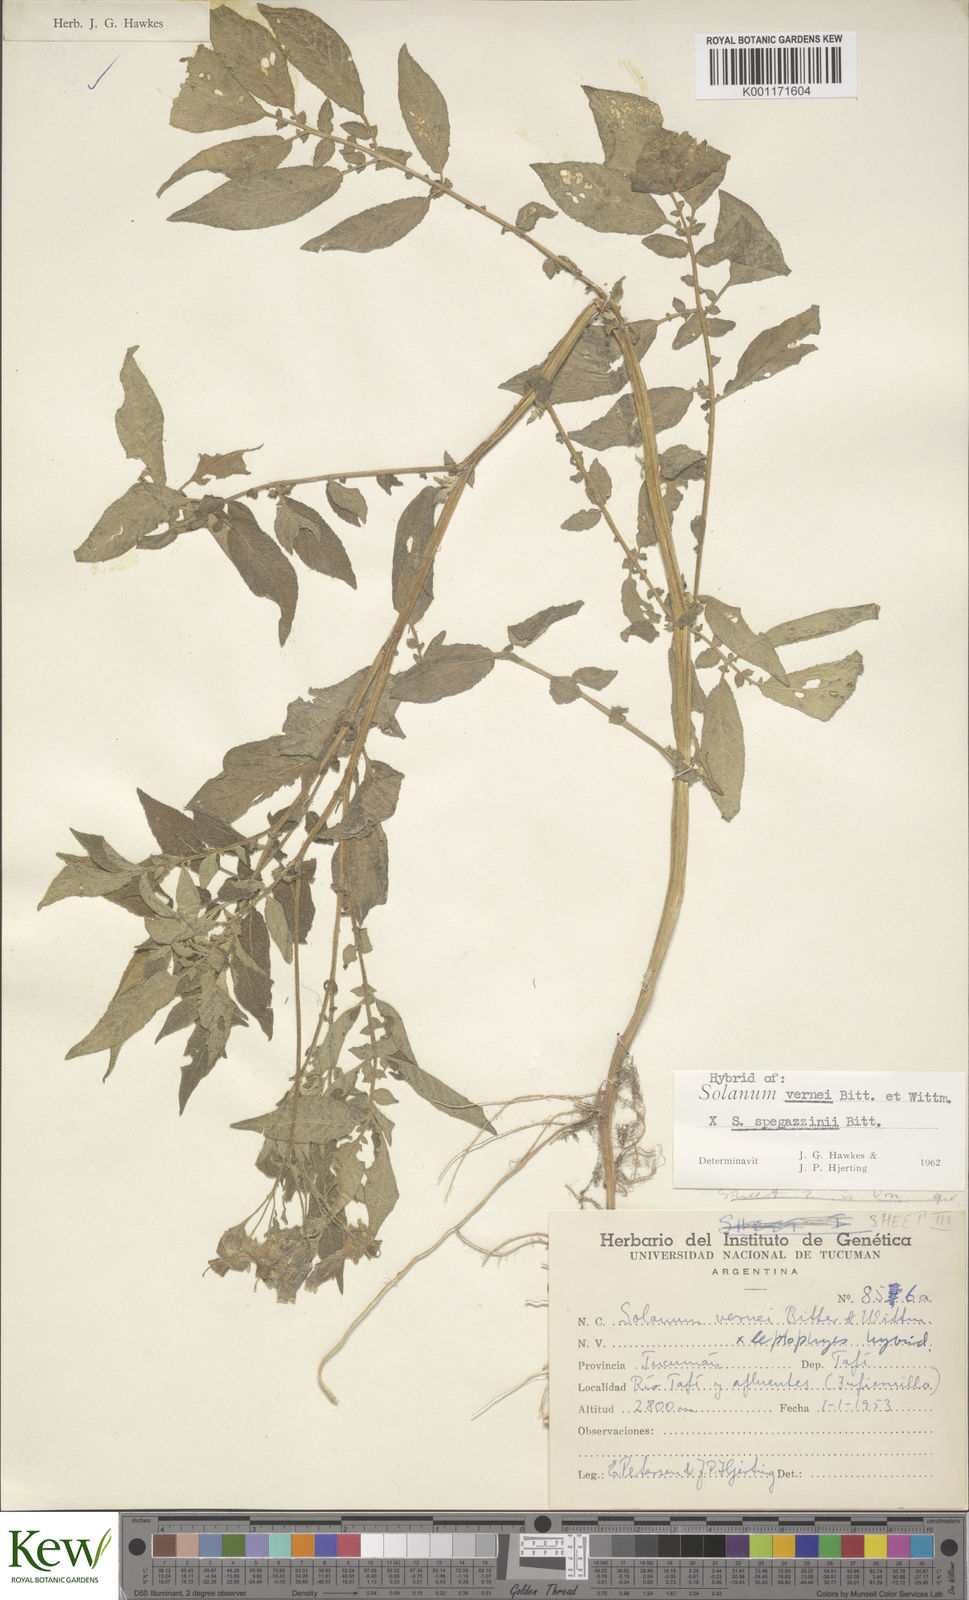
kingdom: Plantae
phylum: Tracheophyta
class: Magnoliopsida
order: Solanales
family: Solanaceae
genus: Solanum
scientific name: Solanum vernei
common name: Purple potato
